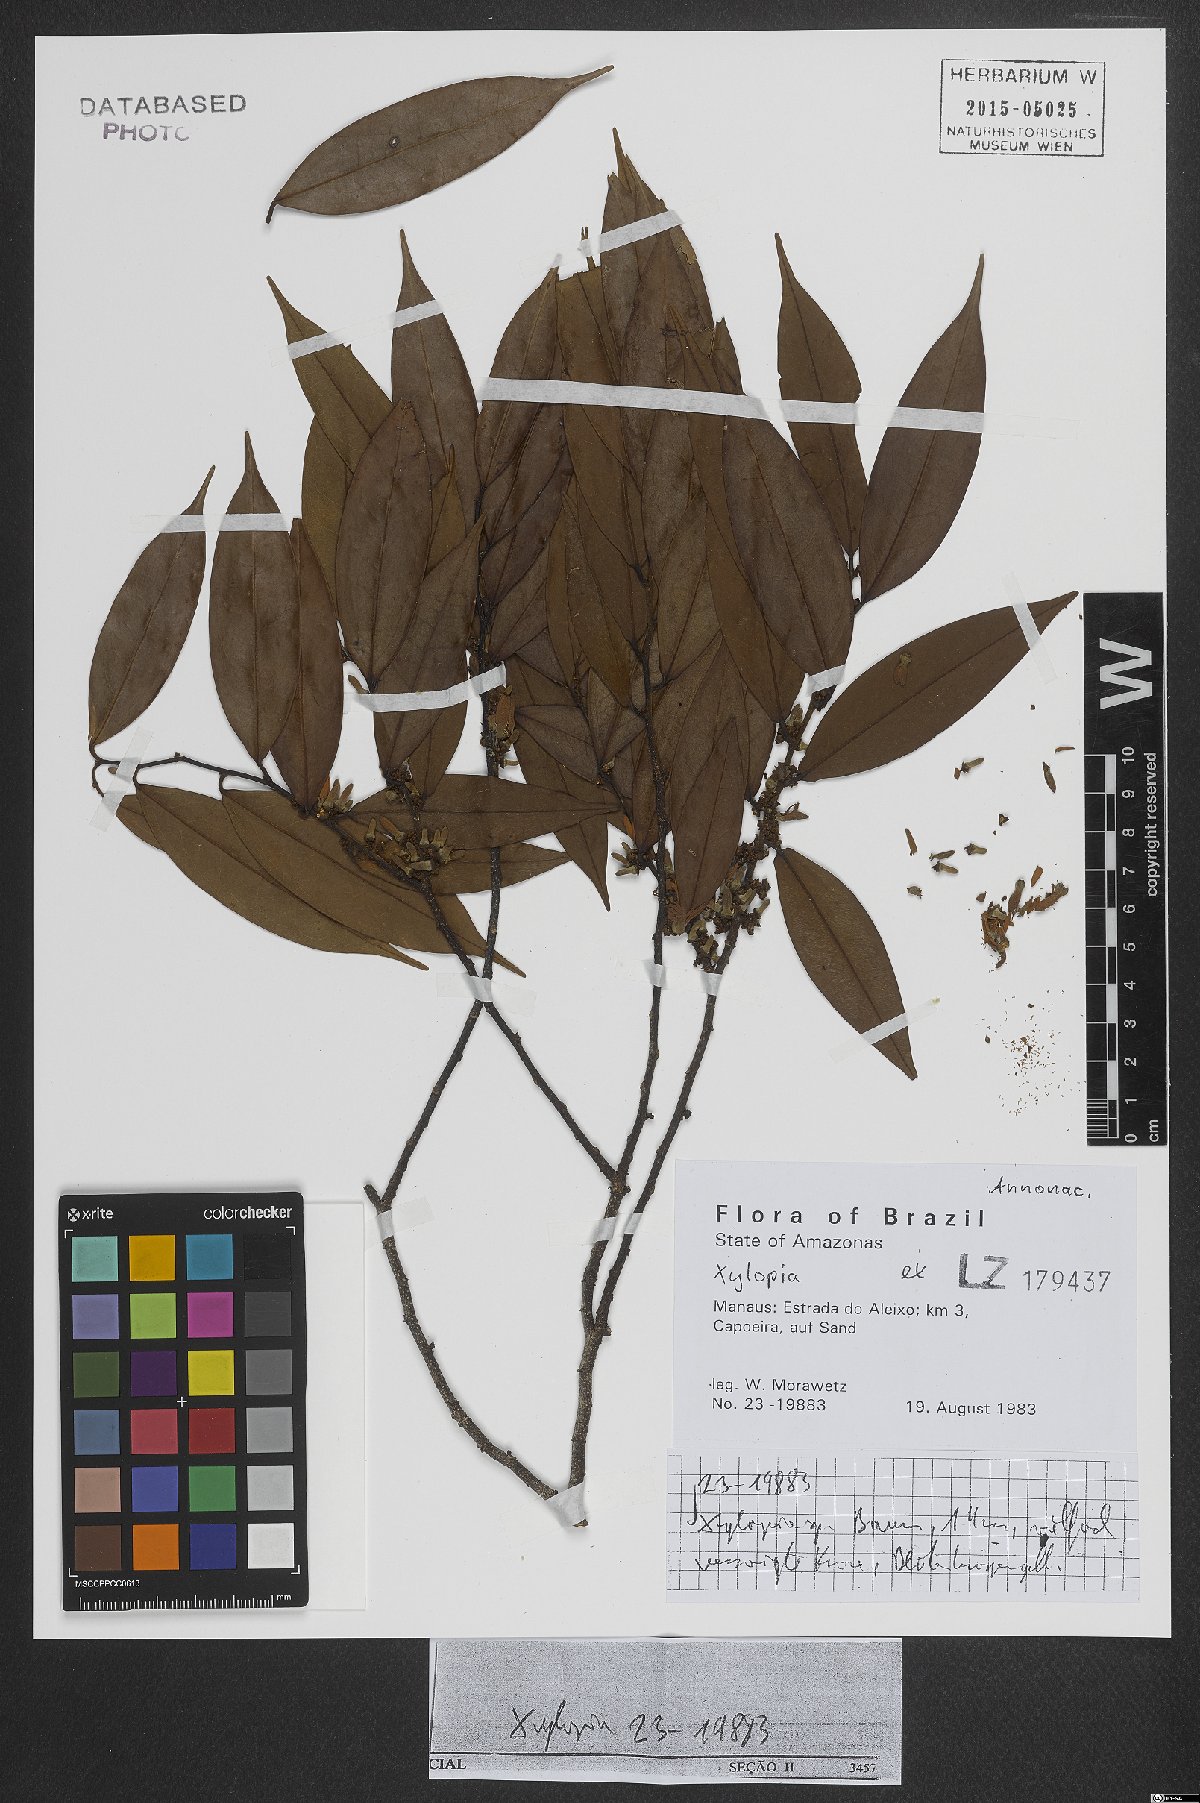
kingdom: Plantae
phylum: Tracheophyta
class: Magnoliopsida
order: Magnoliales
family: Annonaceae
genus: Xylopia
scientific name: Xylopia
